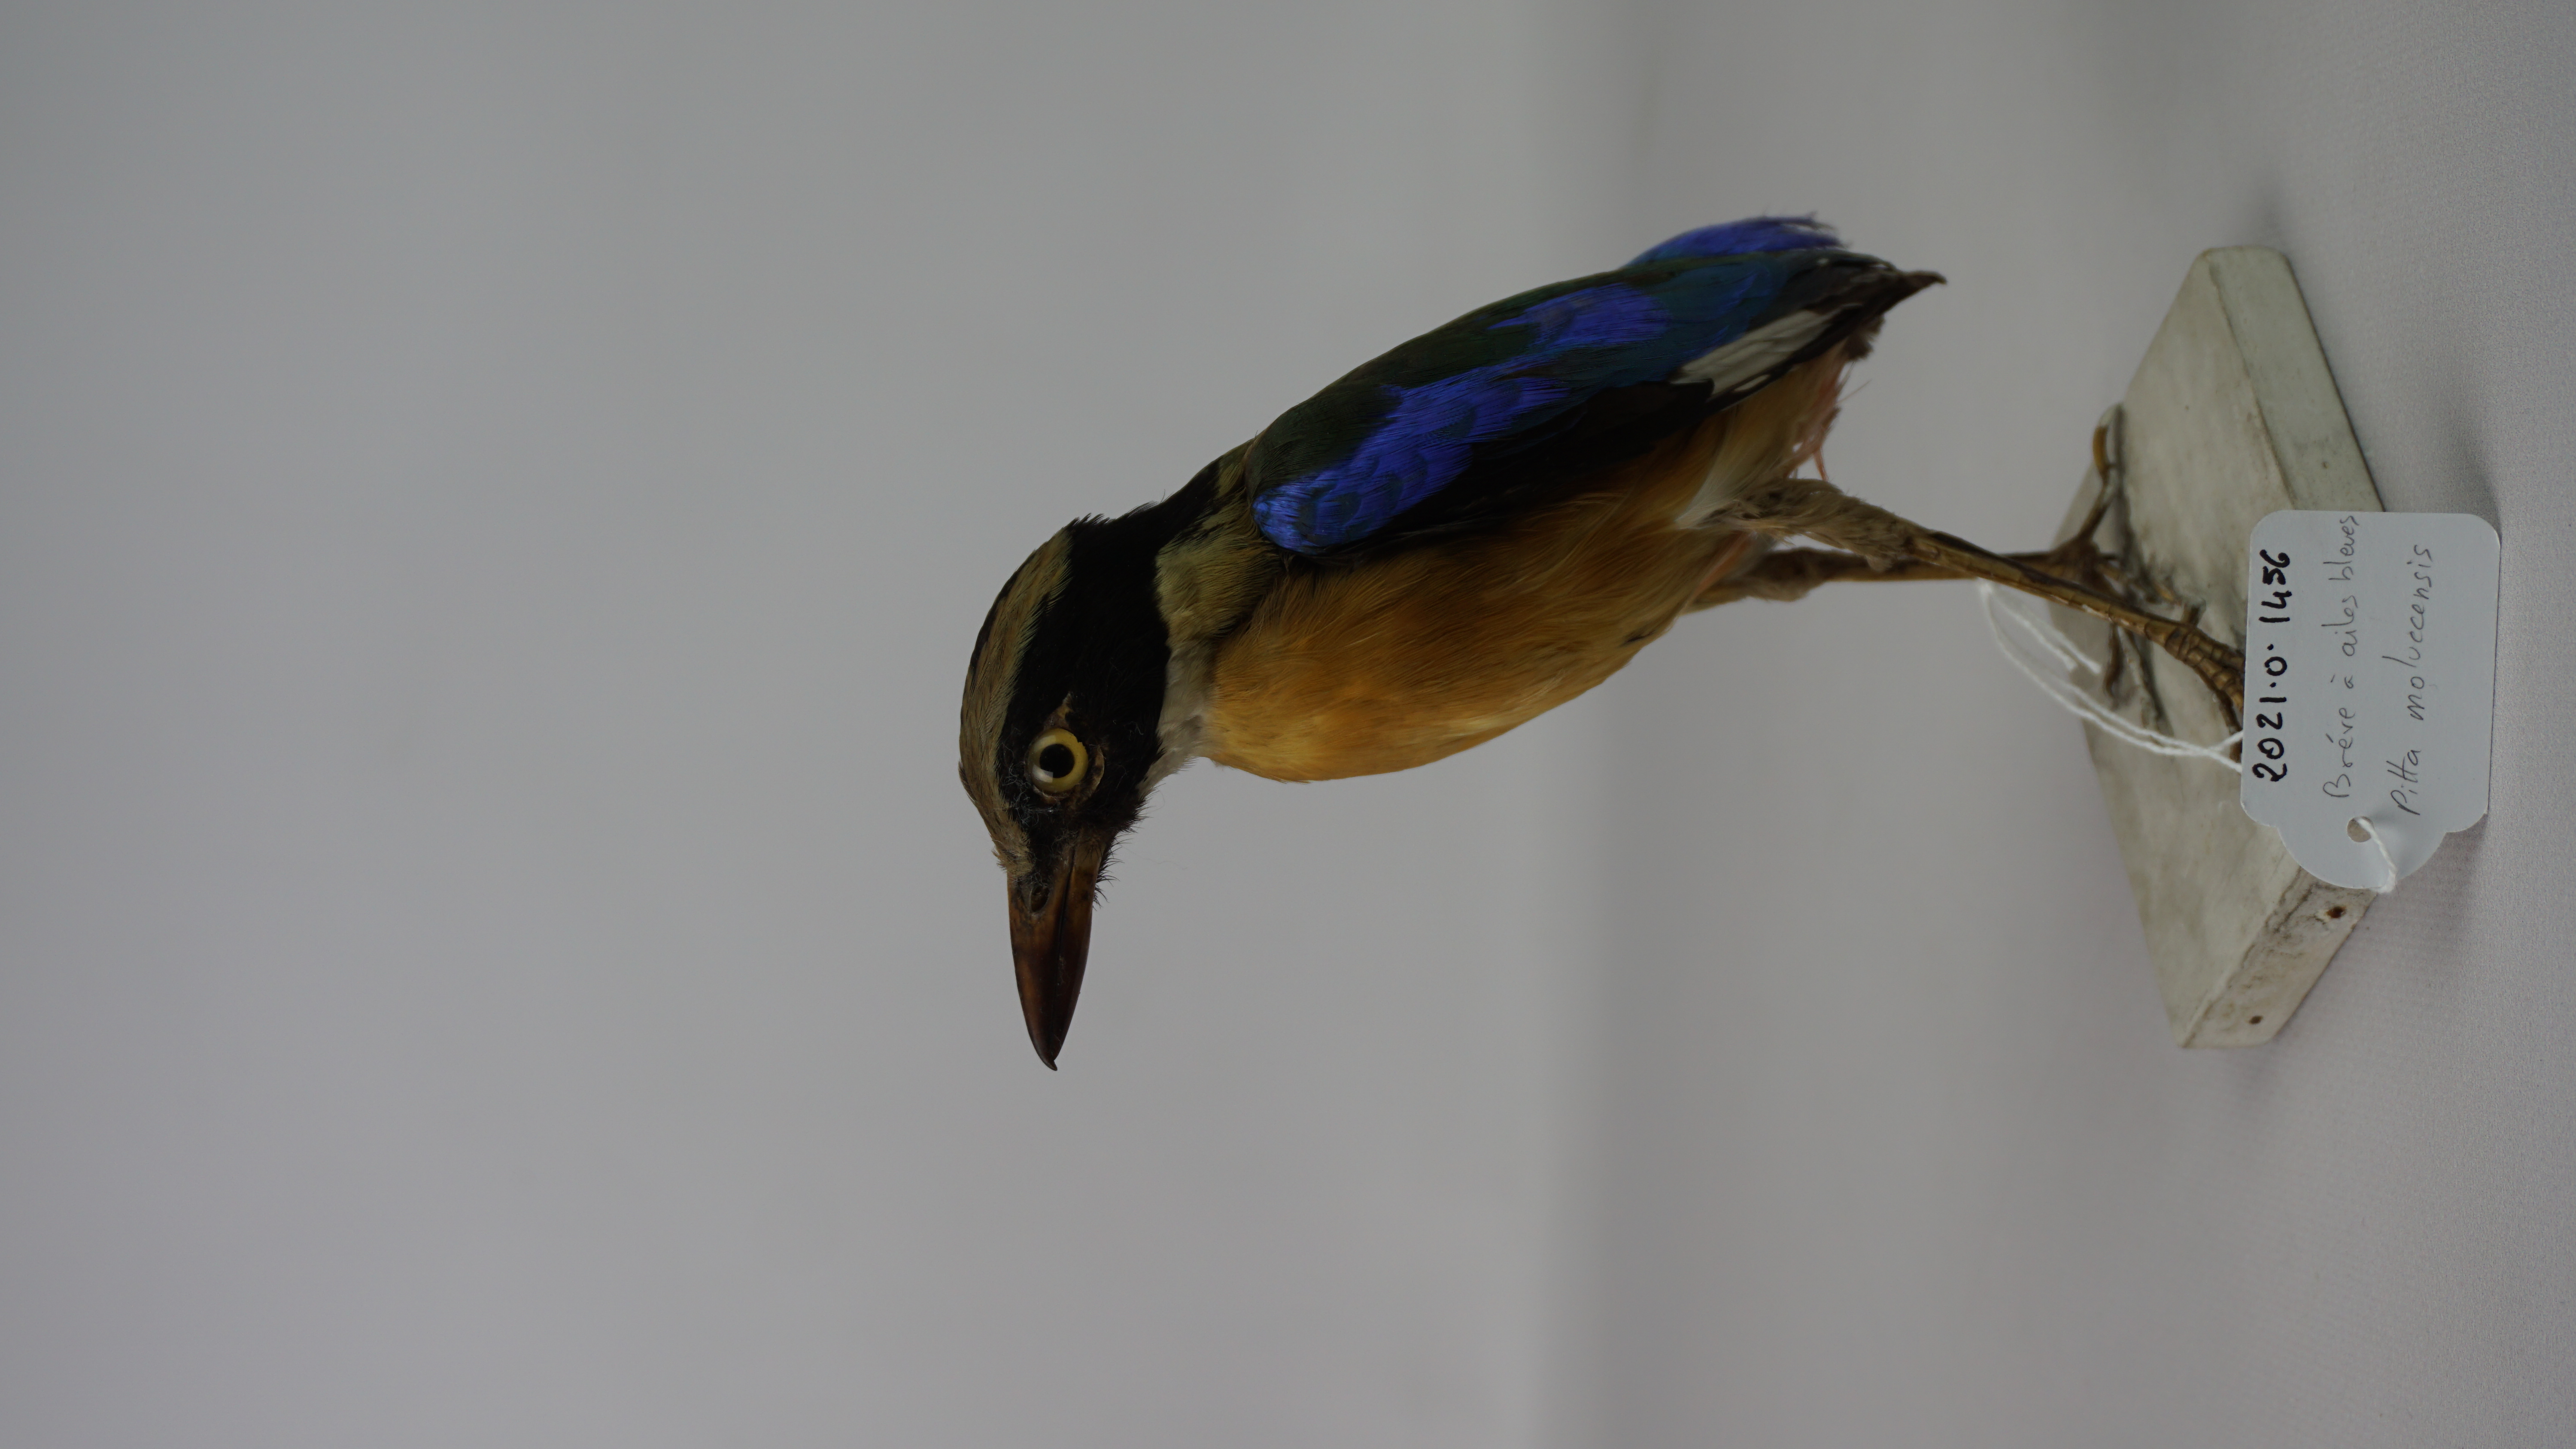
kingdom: Animalia
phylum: Chordata
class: Aves
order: Passeriformes
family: Pittidae
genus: Pitta
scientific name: Pitta moluccensis
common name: Blue-winged pitta
